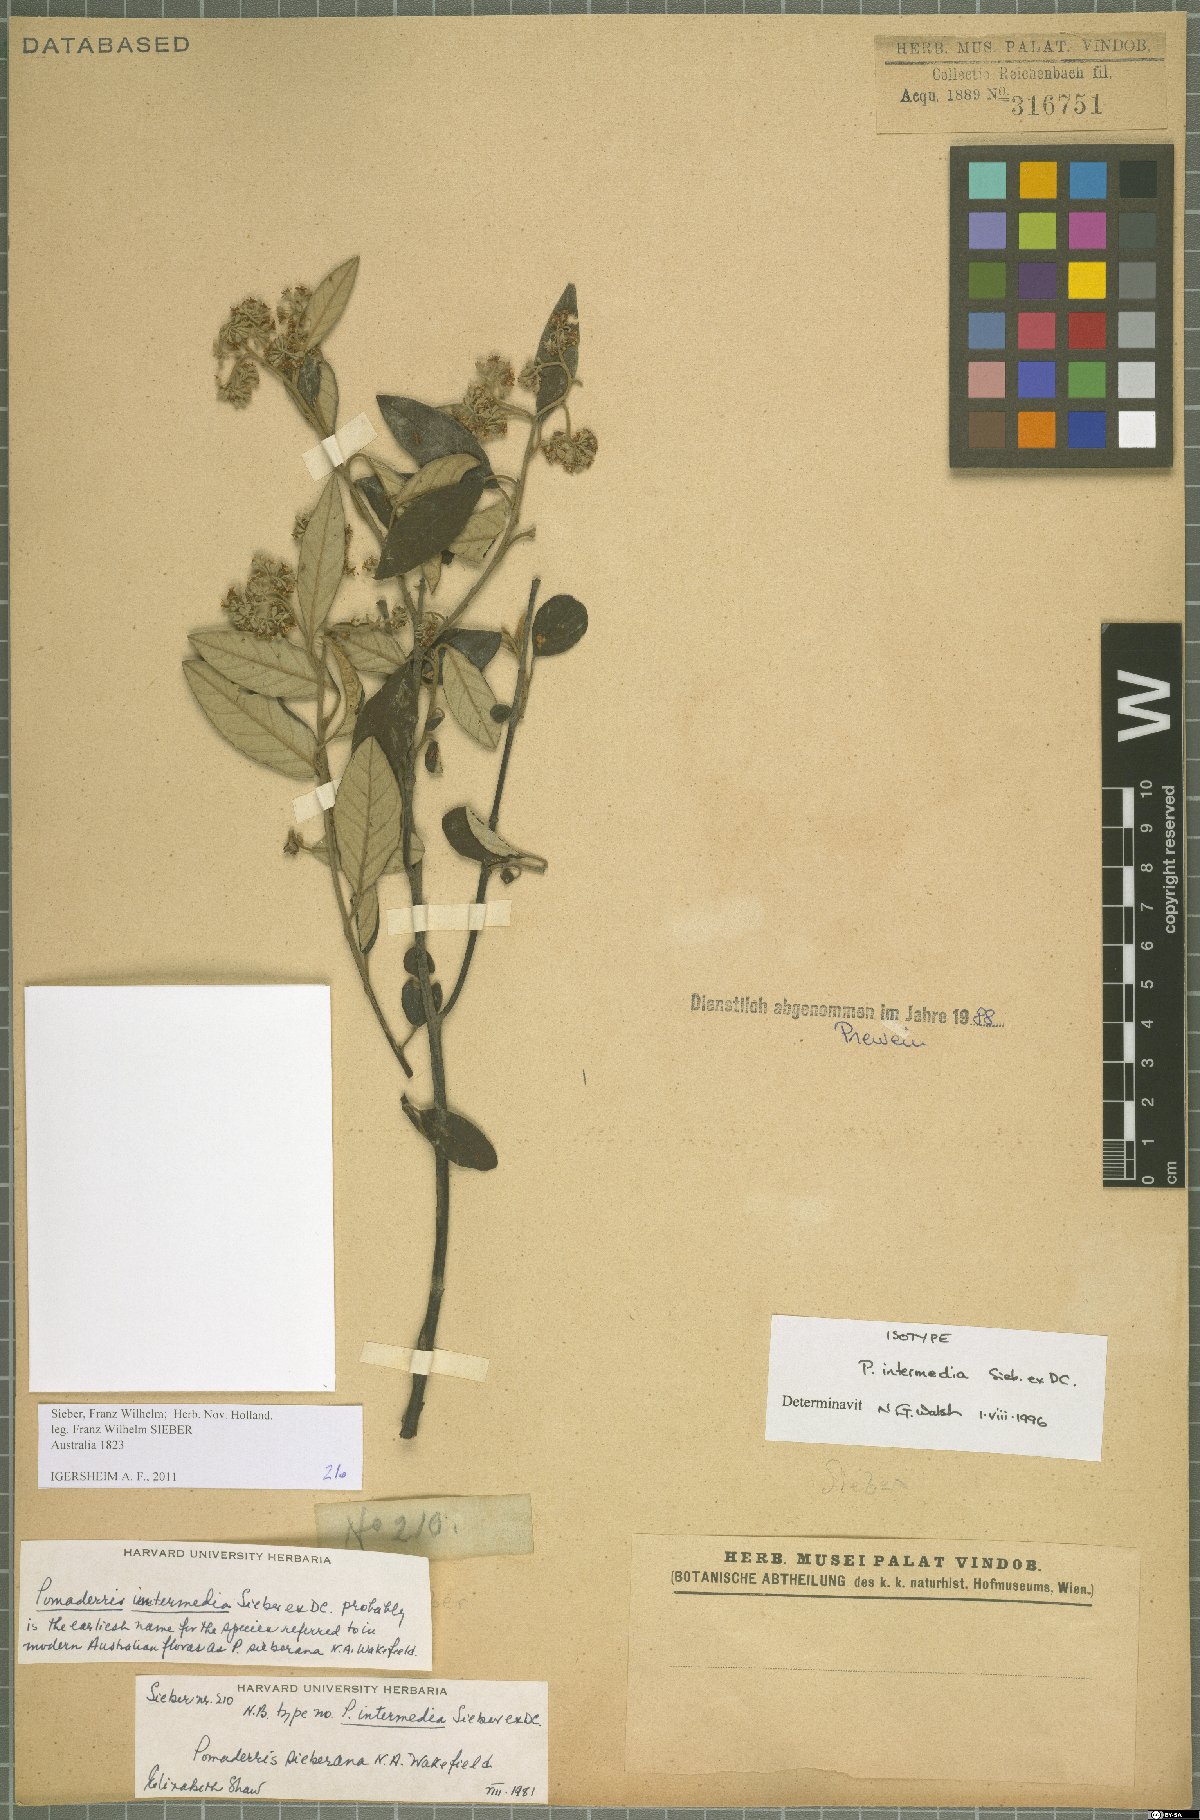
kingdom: Plantae
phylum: Tracheophyta
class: Magnoliopsida
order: Rosales
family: Rhamnaceae
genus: Pomaderris
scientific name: Pomaderris intermedia
